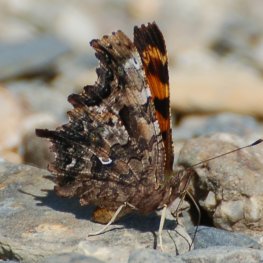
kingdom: Animalia
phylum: Arthropoda
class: Insecta
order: Lepidoptera
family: Nymphalidae
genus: Polygonia
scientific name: Polygonia faunus
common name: Green Comma
